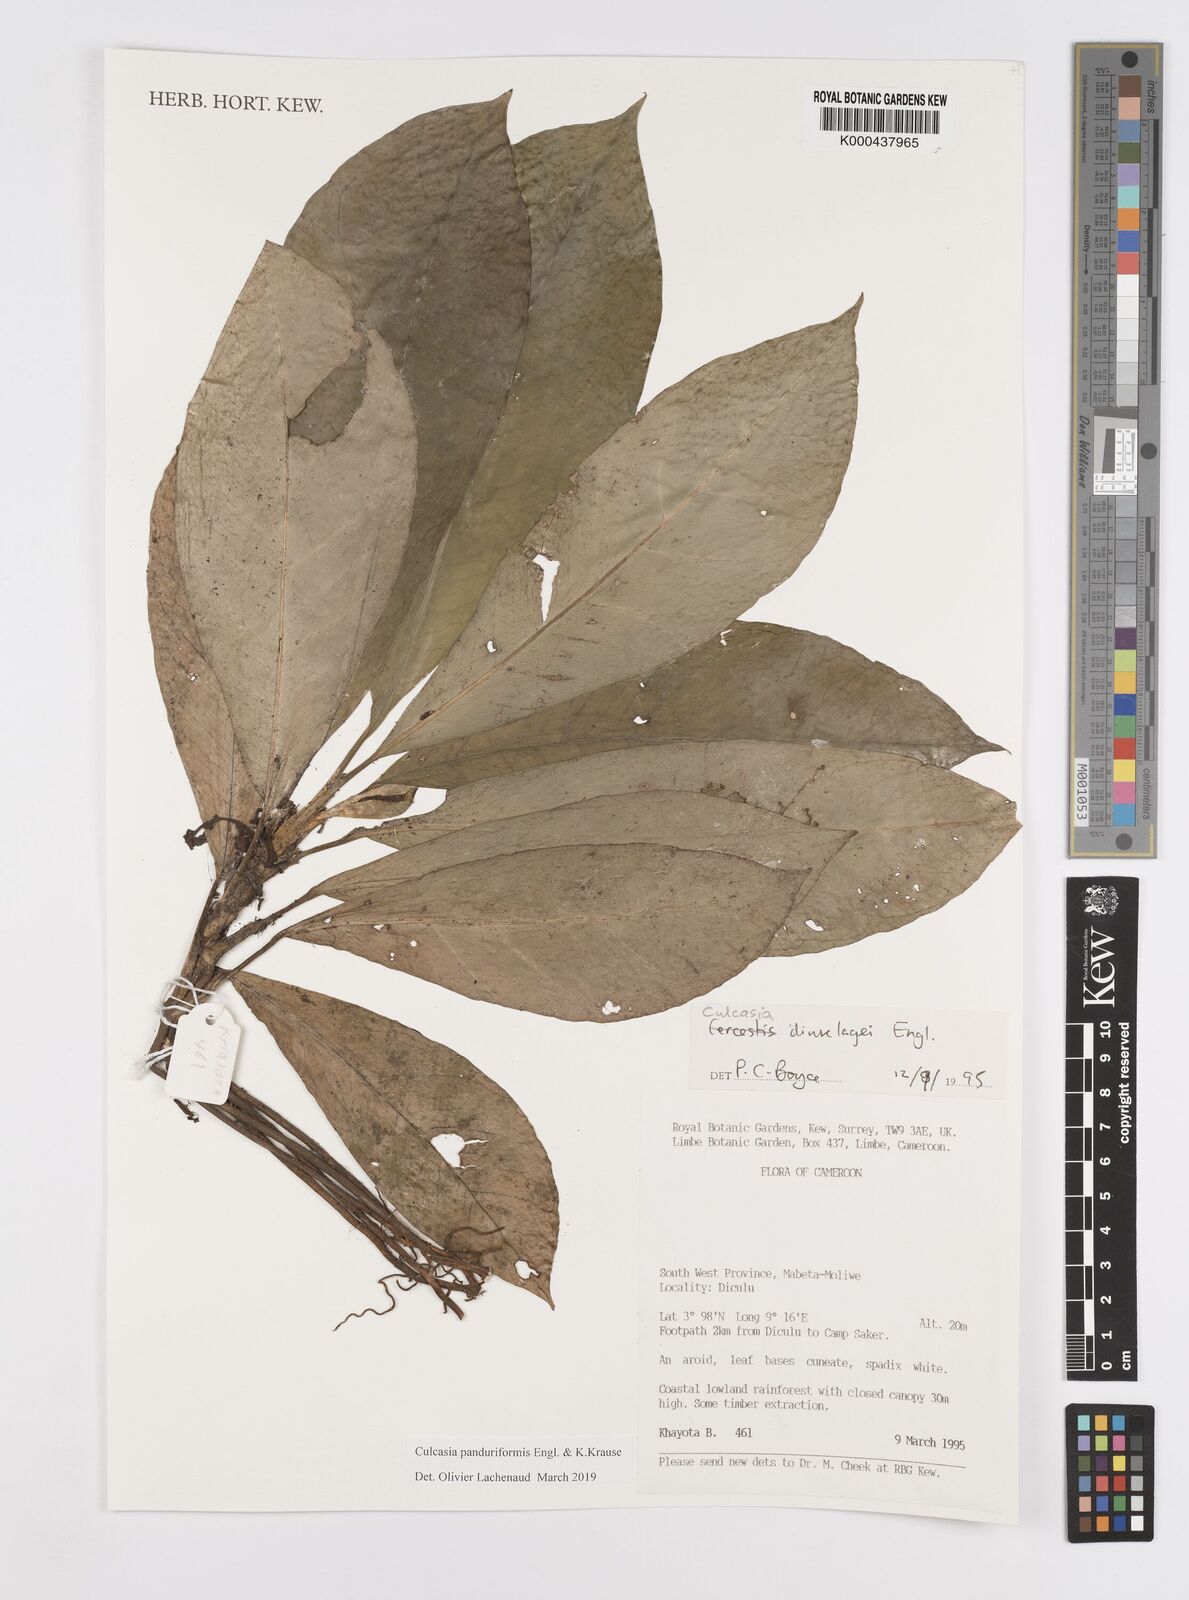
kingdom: Plantae
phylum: Tracheophyta
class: Liliopsida
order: Alismatales
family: Araceae
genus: Culcasia
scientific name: Culcasia panduriformis
